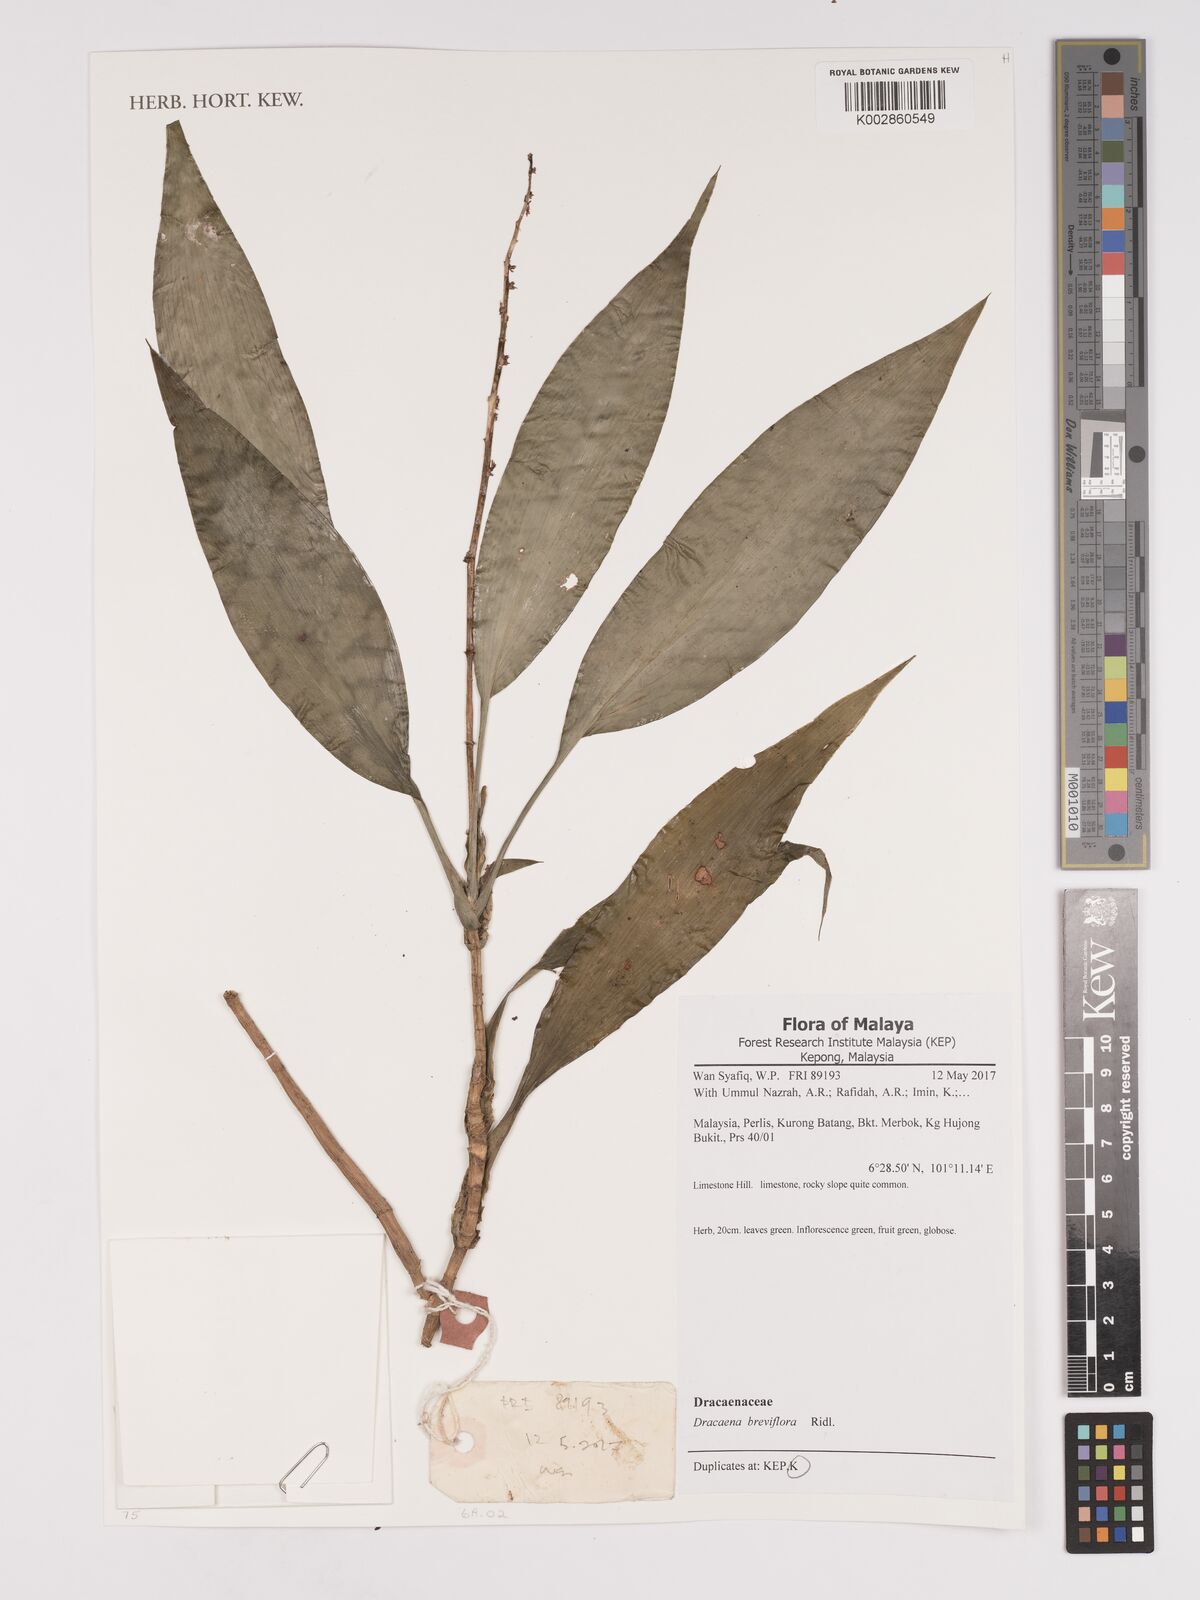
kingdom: Plantae
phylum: Tracheophyta
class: Liliopsida
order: Asparagales
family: Asparagaceae
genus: Dracaena
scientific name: Dracaena breviflora
